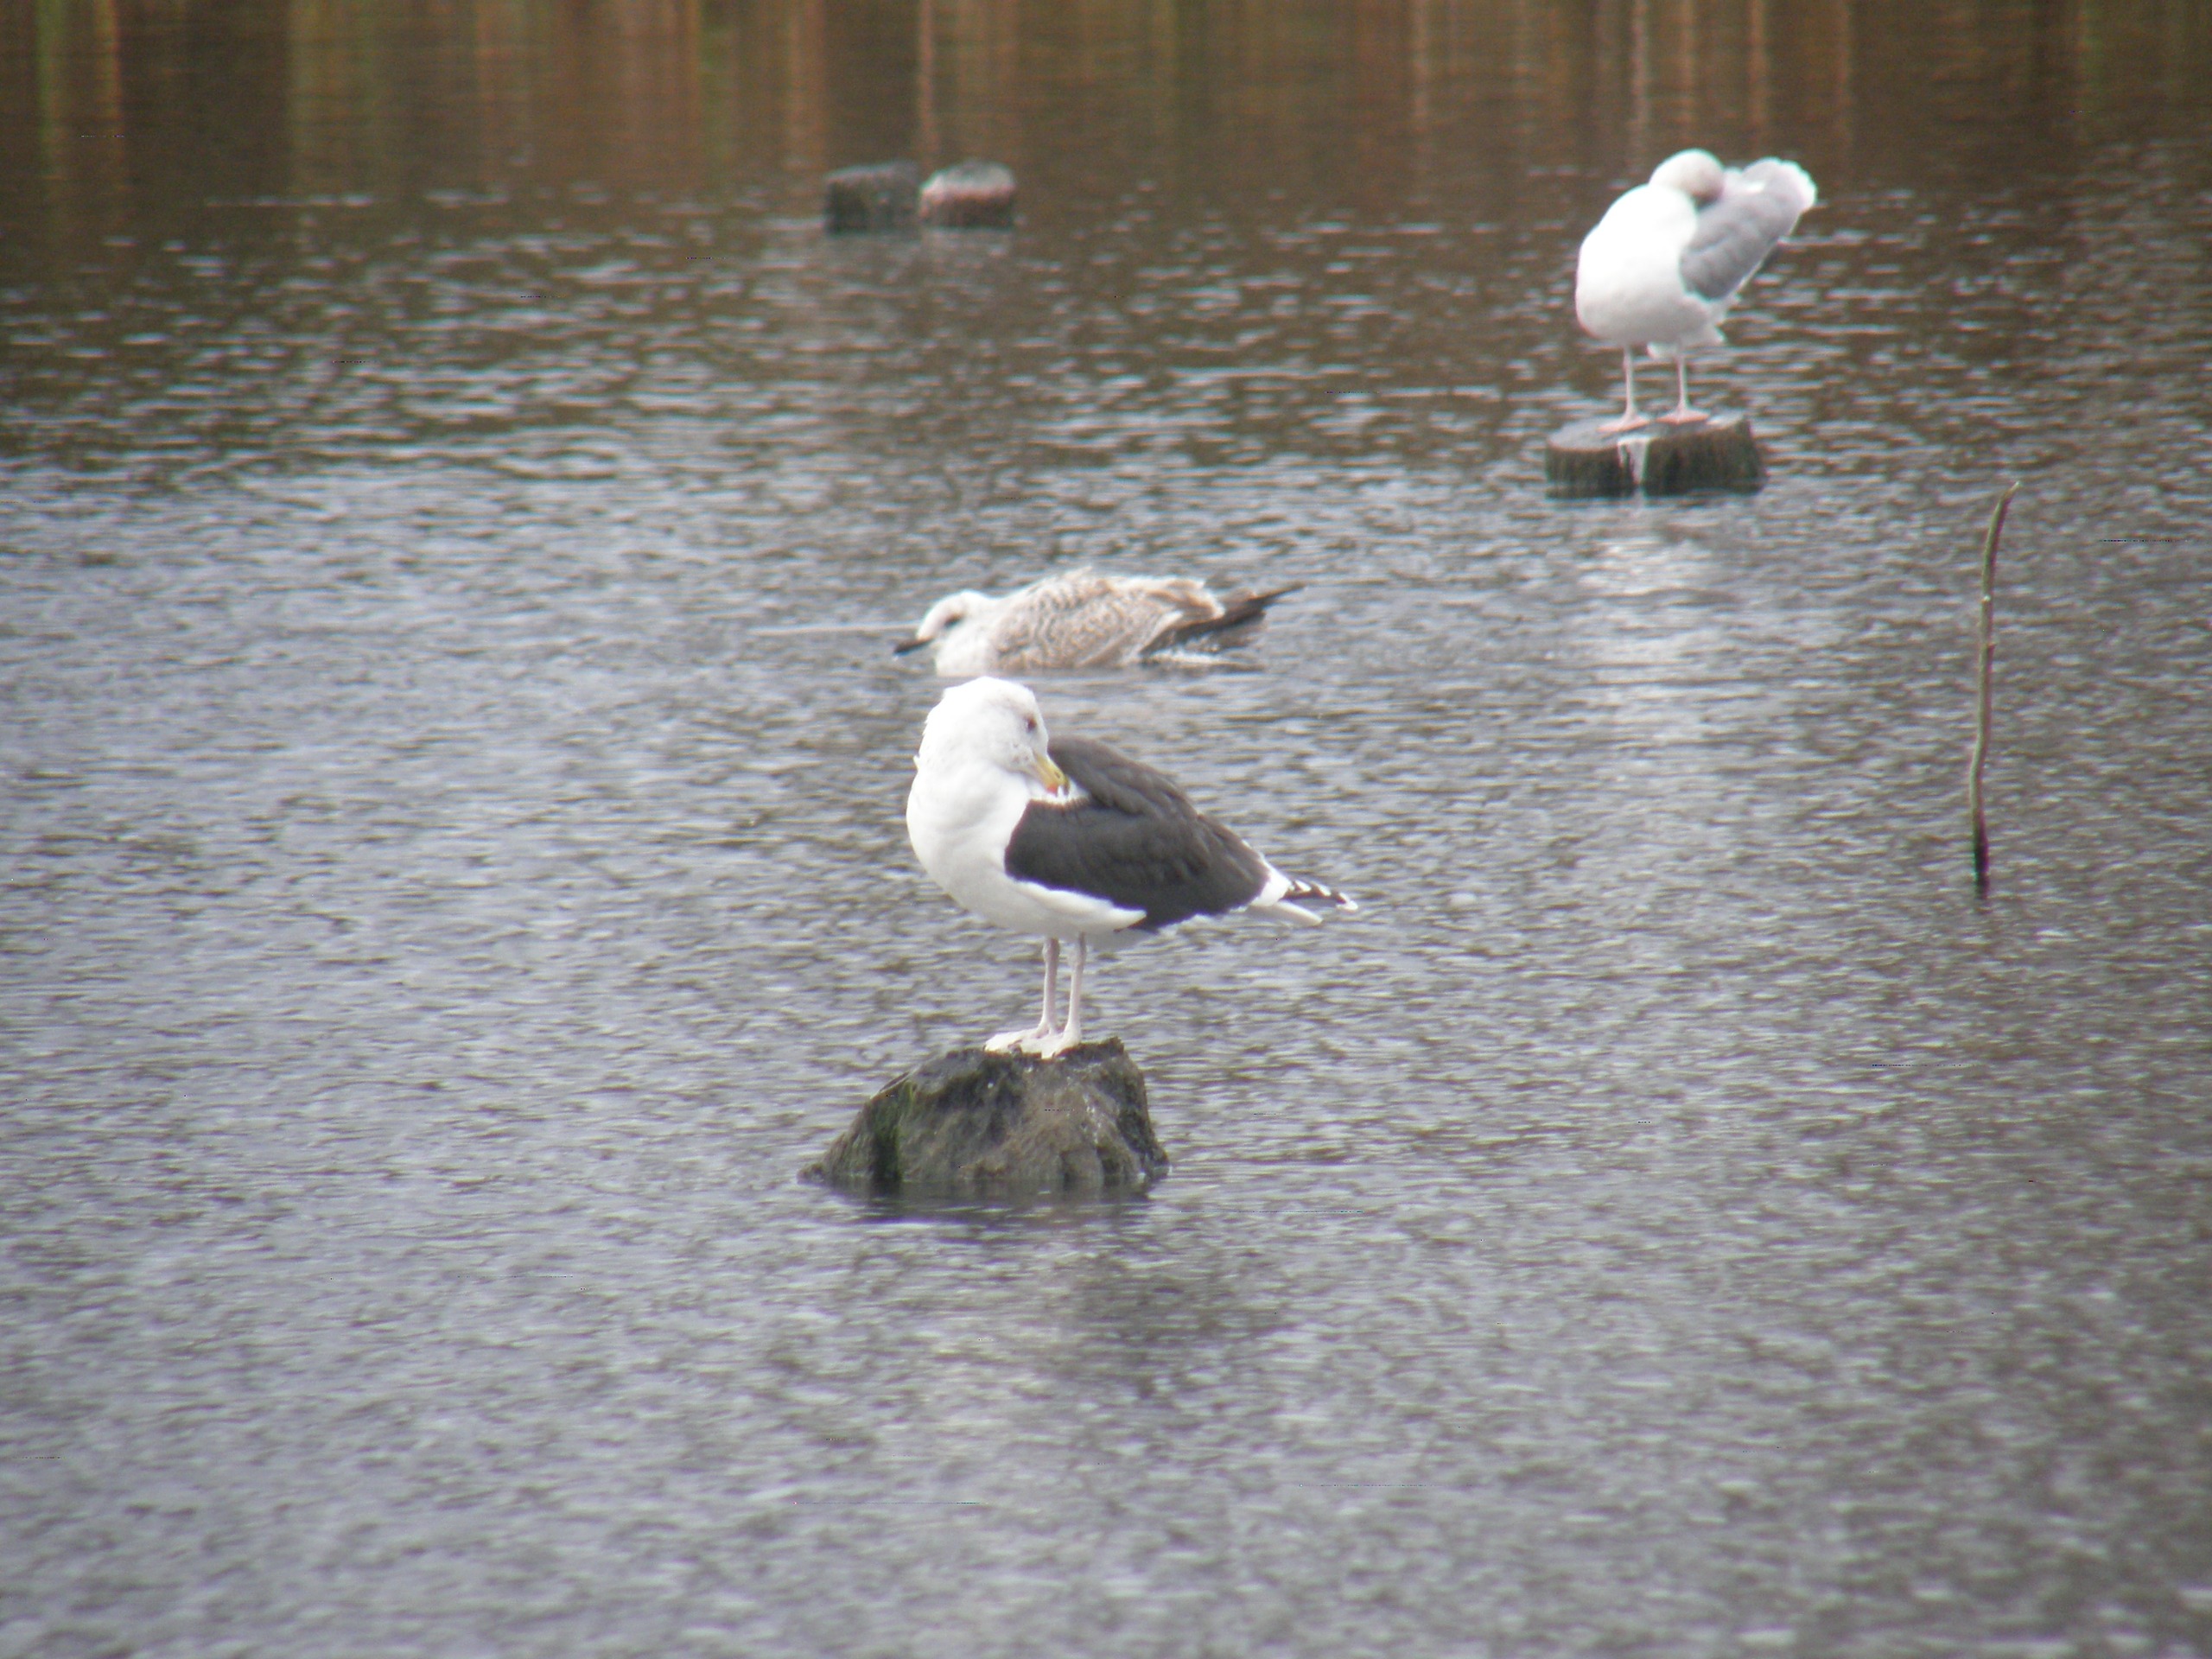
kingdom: Animalia
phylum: Chordata
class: Aves
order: Charadriiformes
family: Laridae
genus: Larus
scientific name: Larus marinus
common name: Svartbag
